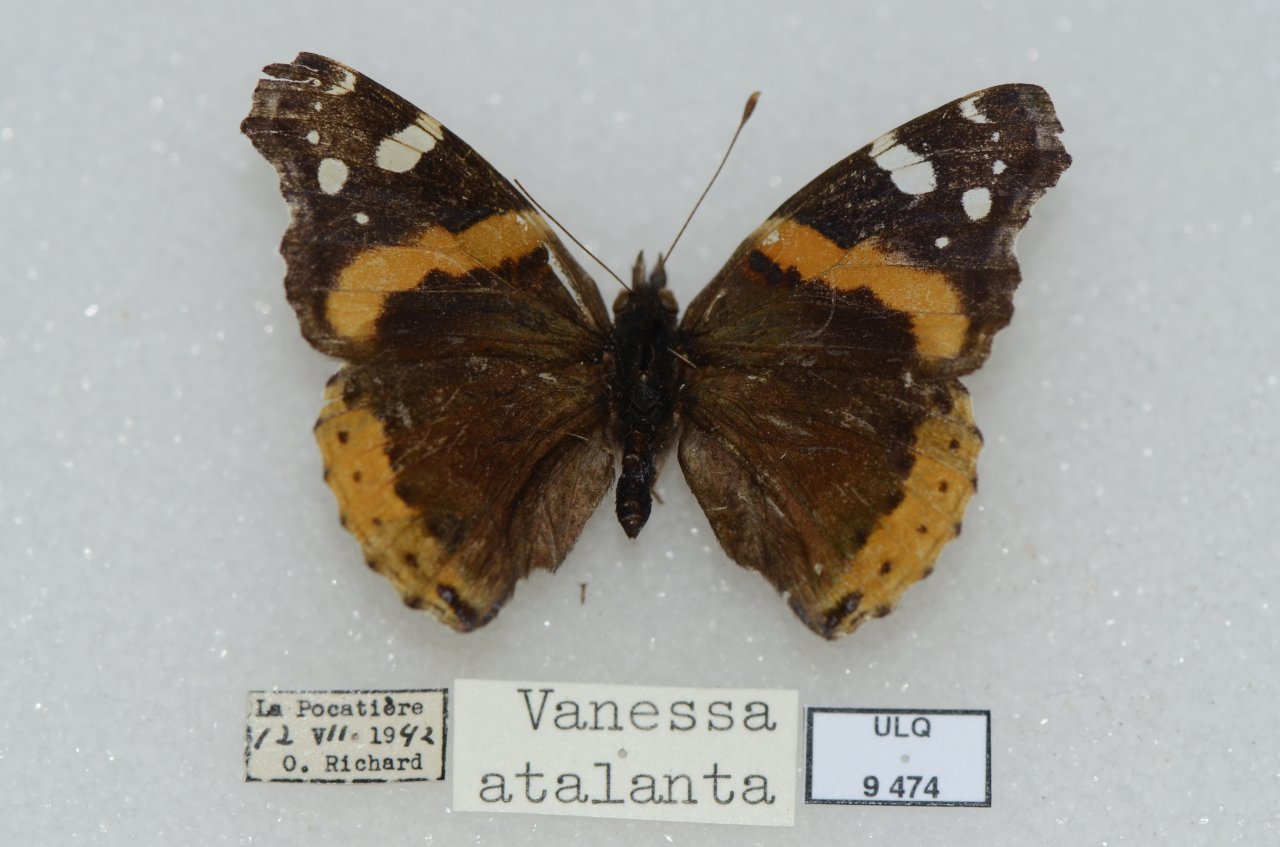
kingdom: Animalia
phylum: Arthropoda
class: Insecta
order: Lepidoptera
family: Nymphalidae
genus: Vanessa
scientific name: Vanessa atalanta
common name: Red Admiral
